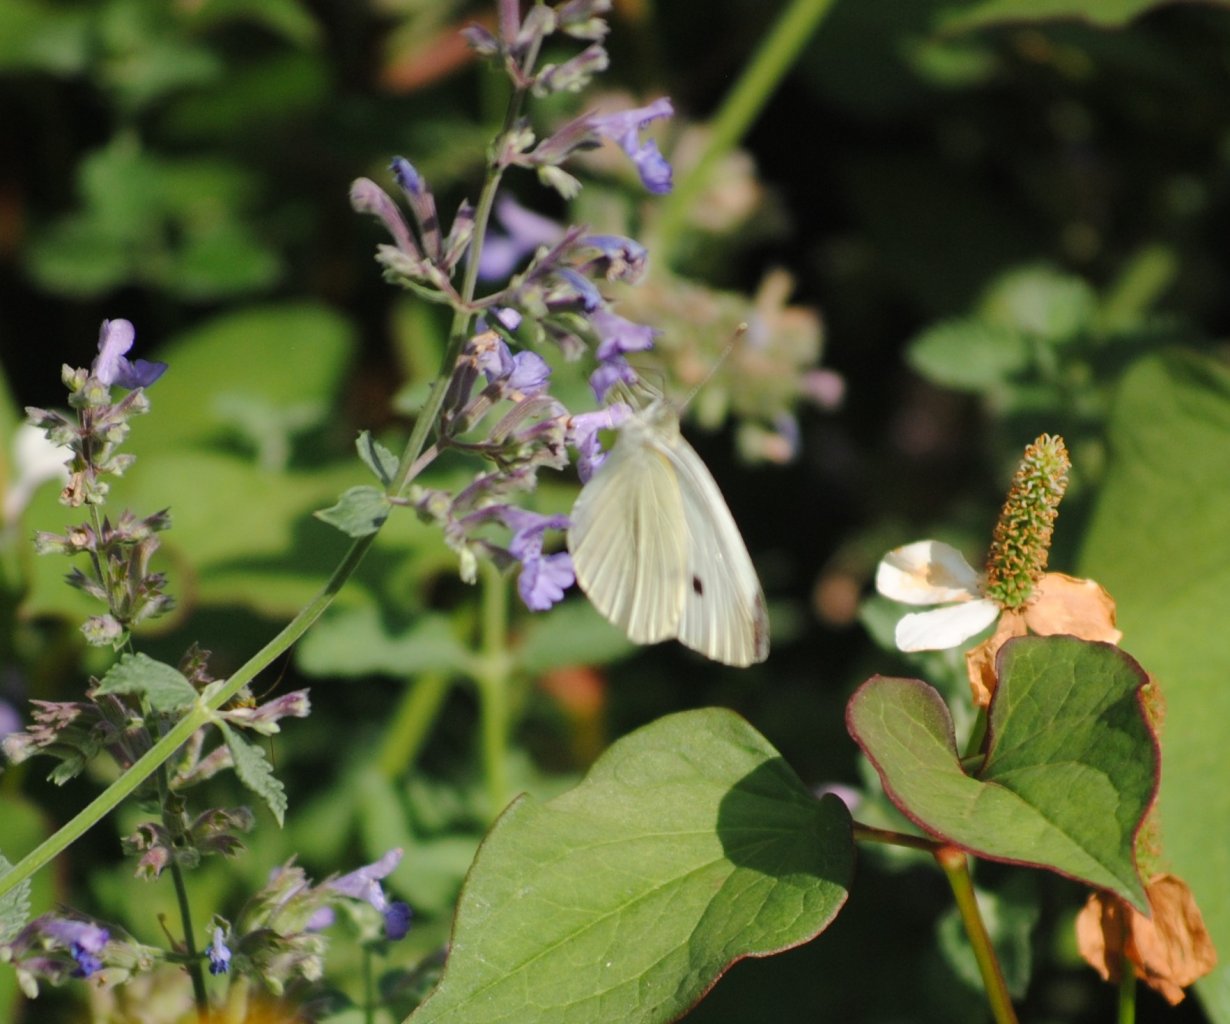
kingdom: Animalia
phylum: Arthropoda
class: Insecta
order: Lepidoptera
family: Pieridae
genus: Pieris
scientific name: Pieris rapae
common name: Cabbage White
